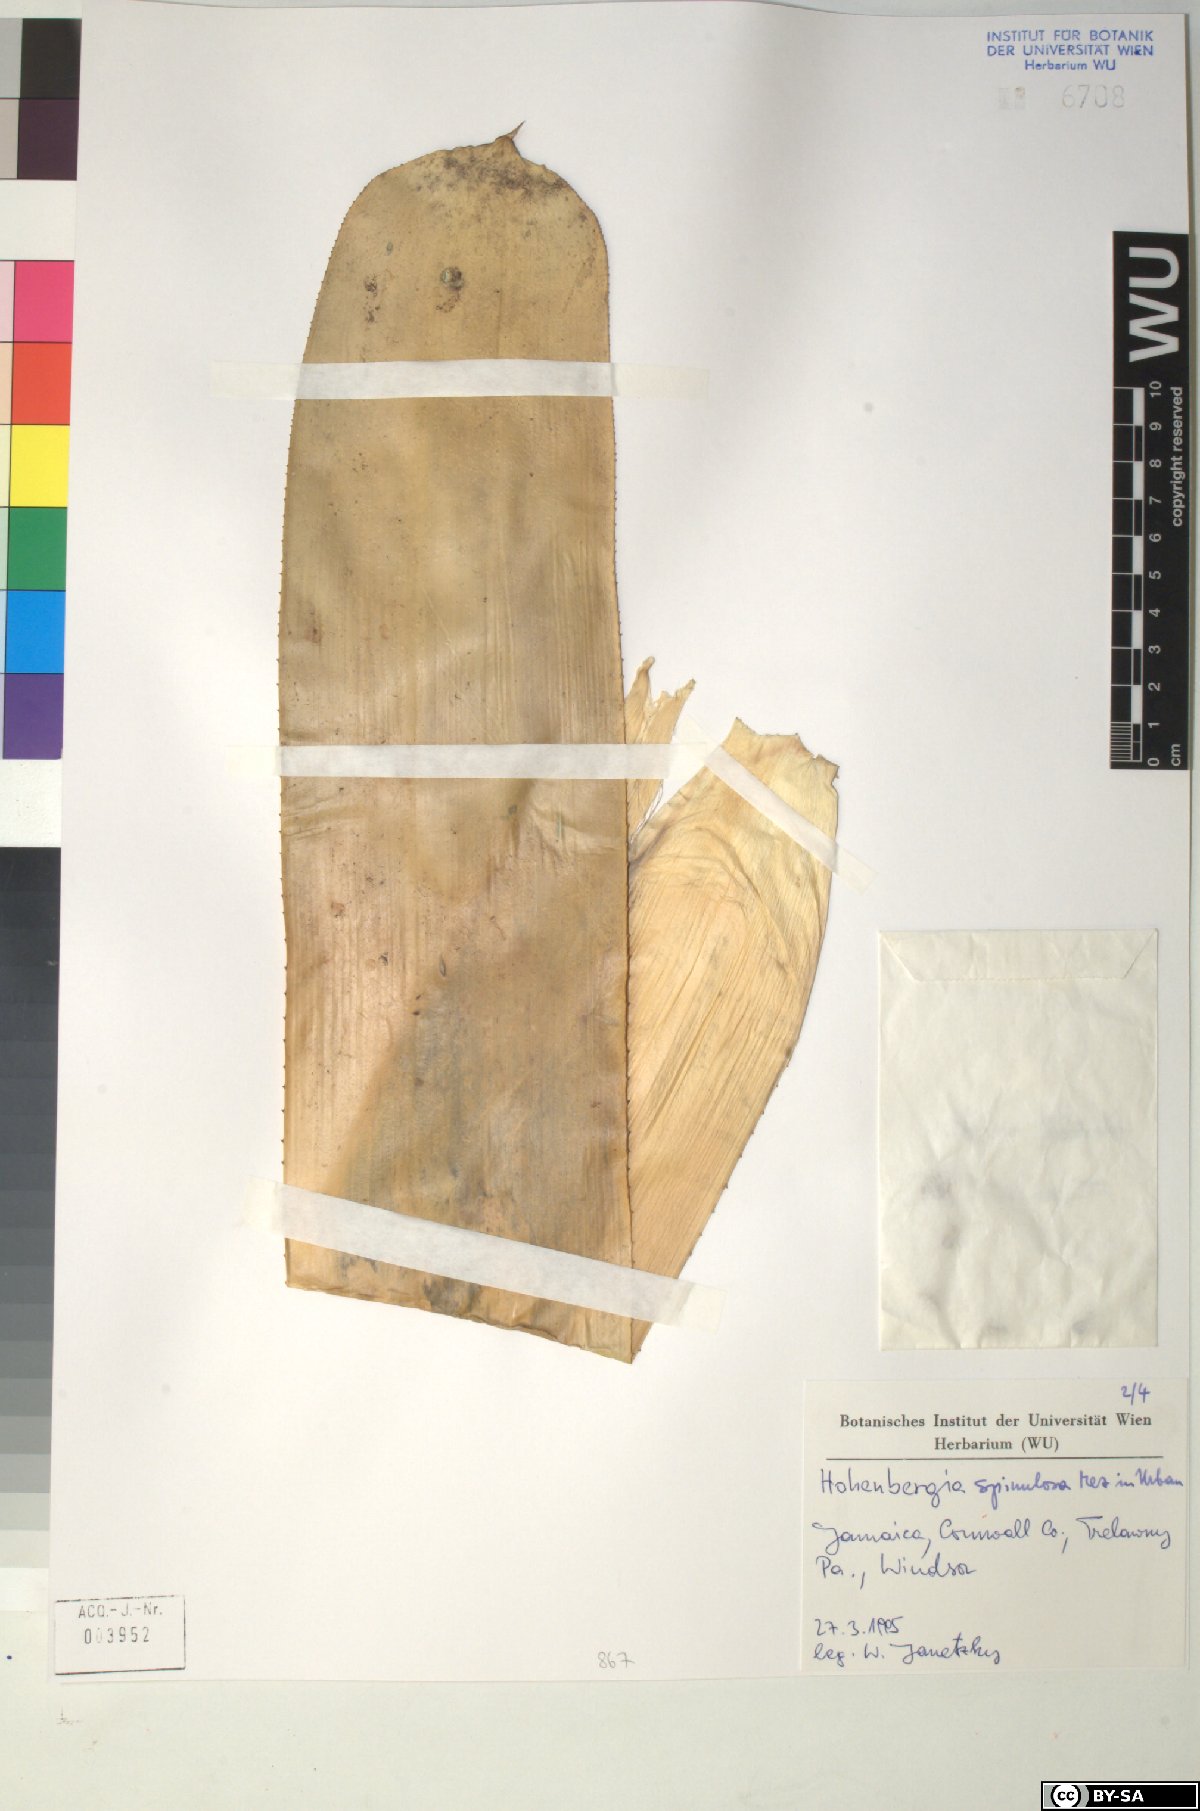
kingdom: Plantae
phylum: Tracheophyta
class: Liliopsida
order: Poales
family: Bromeliaceae
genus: Wittmackia
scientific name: Wittmackia spinulosa
